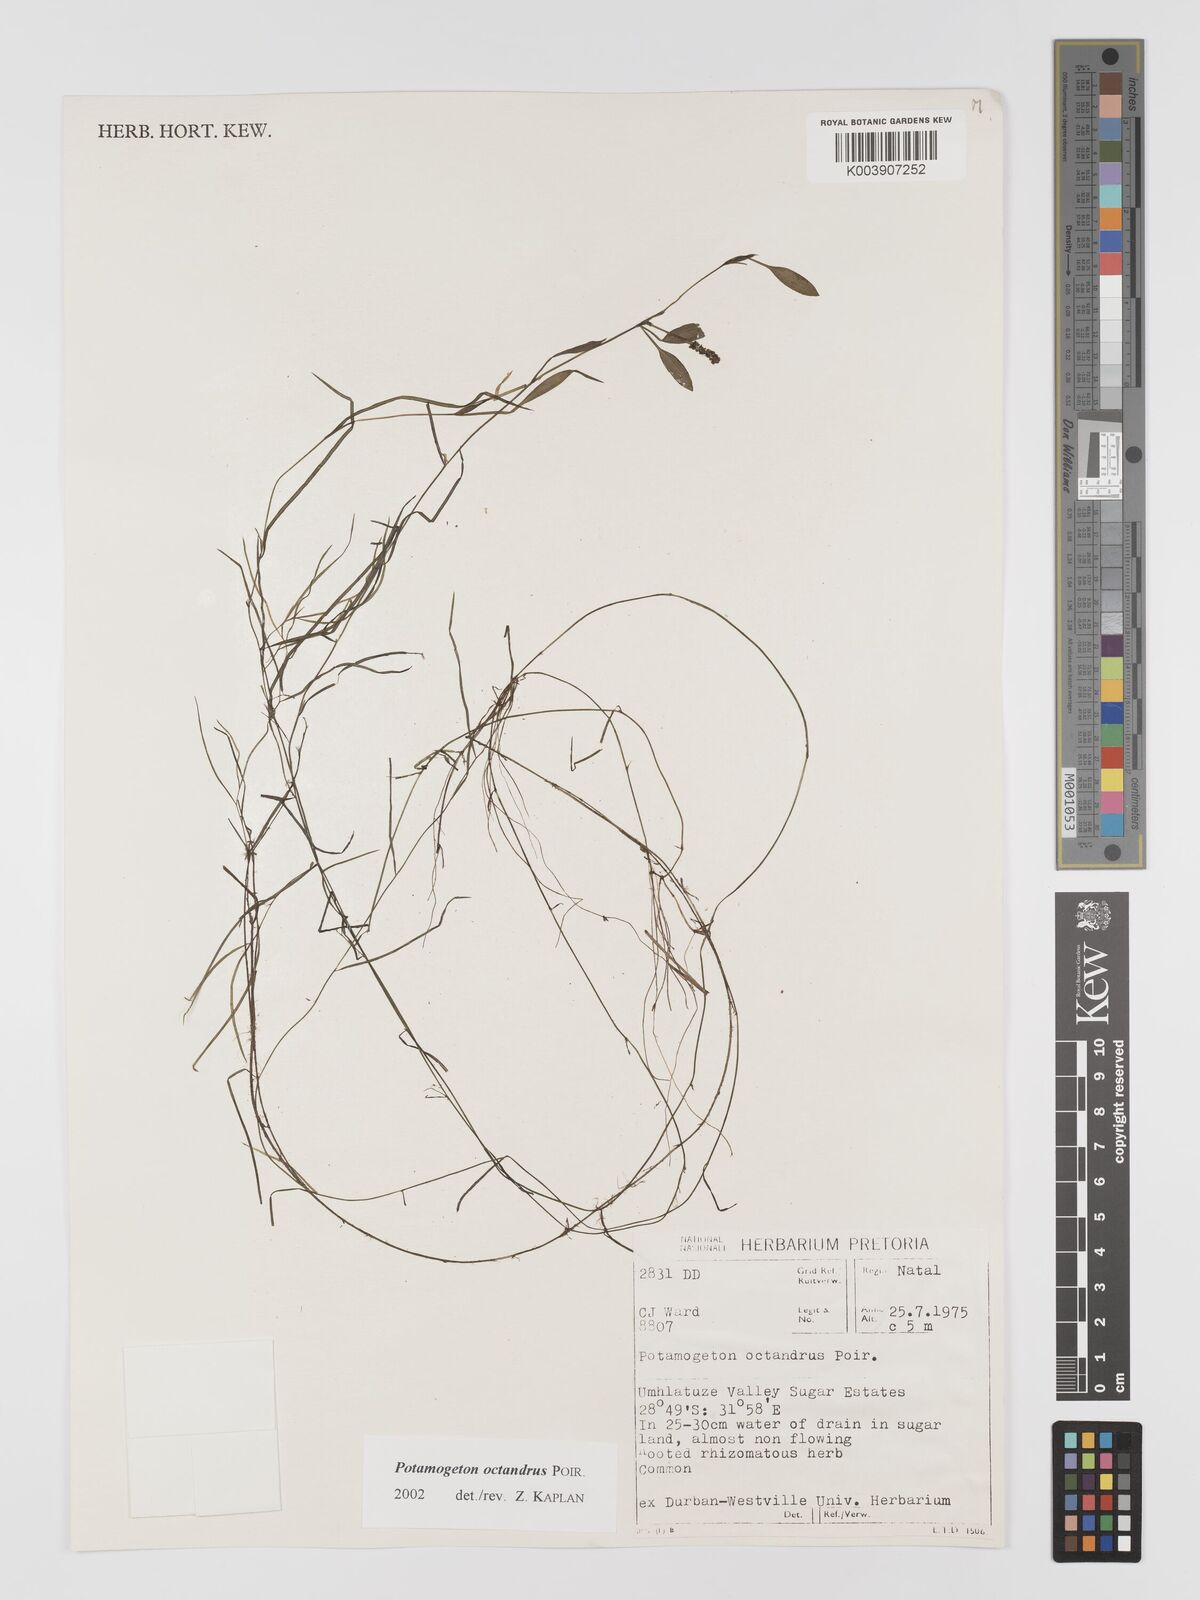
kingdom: Plantae
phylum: Tracheophyta
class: Liliopsida
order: Alismatales
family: Potamogetonaceae
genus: Potamogeton
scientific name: Potamogeton octandrus
